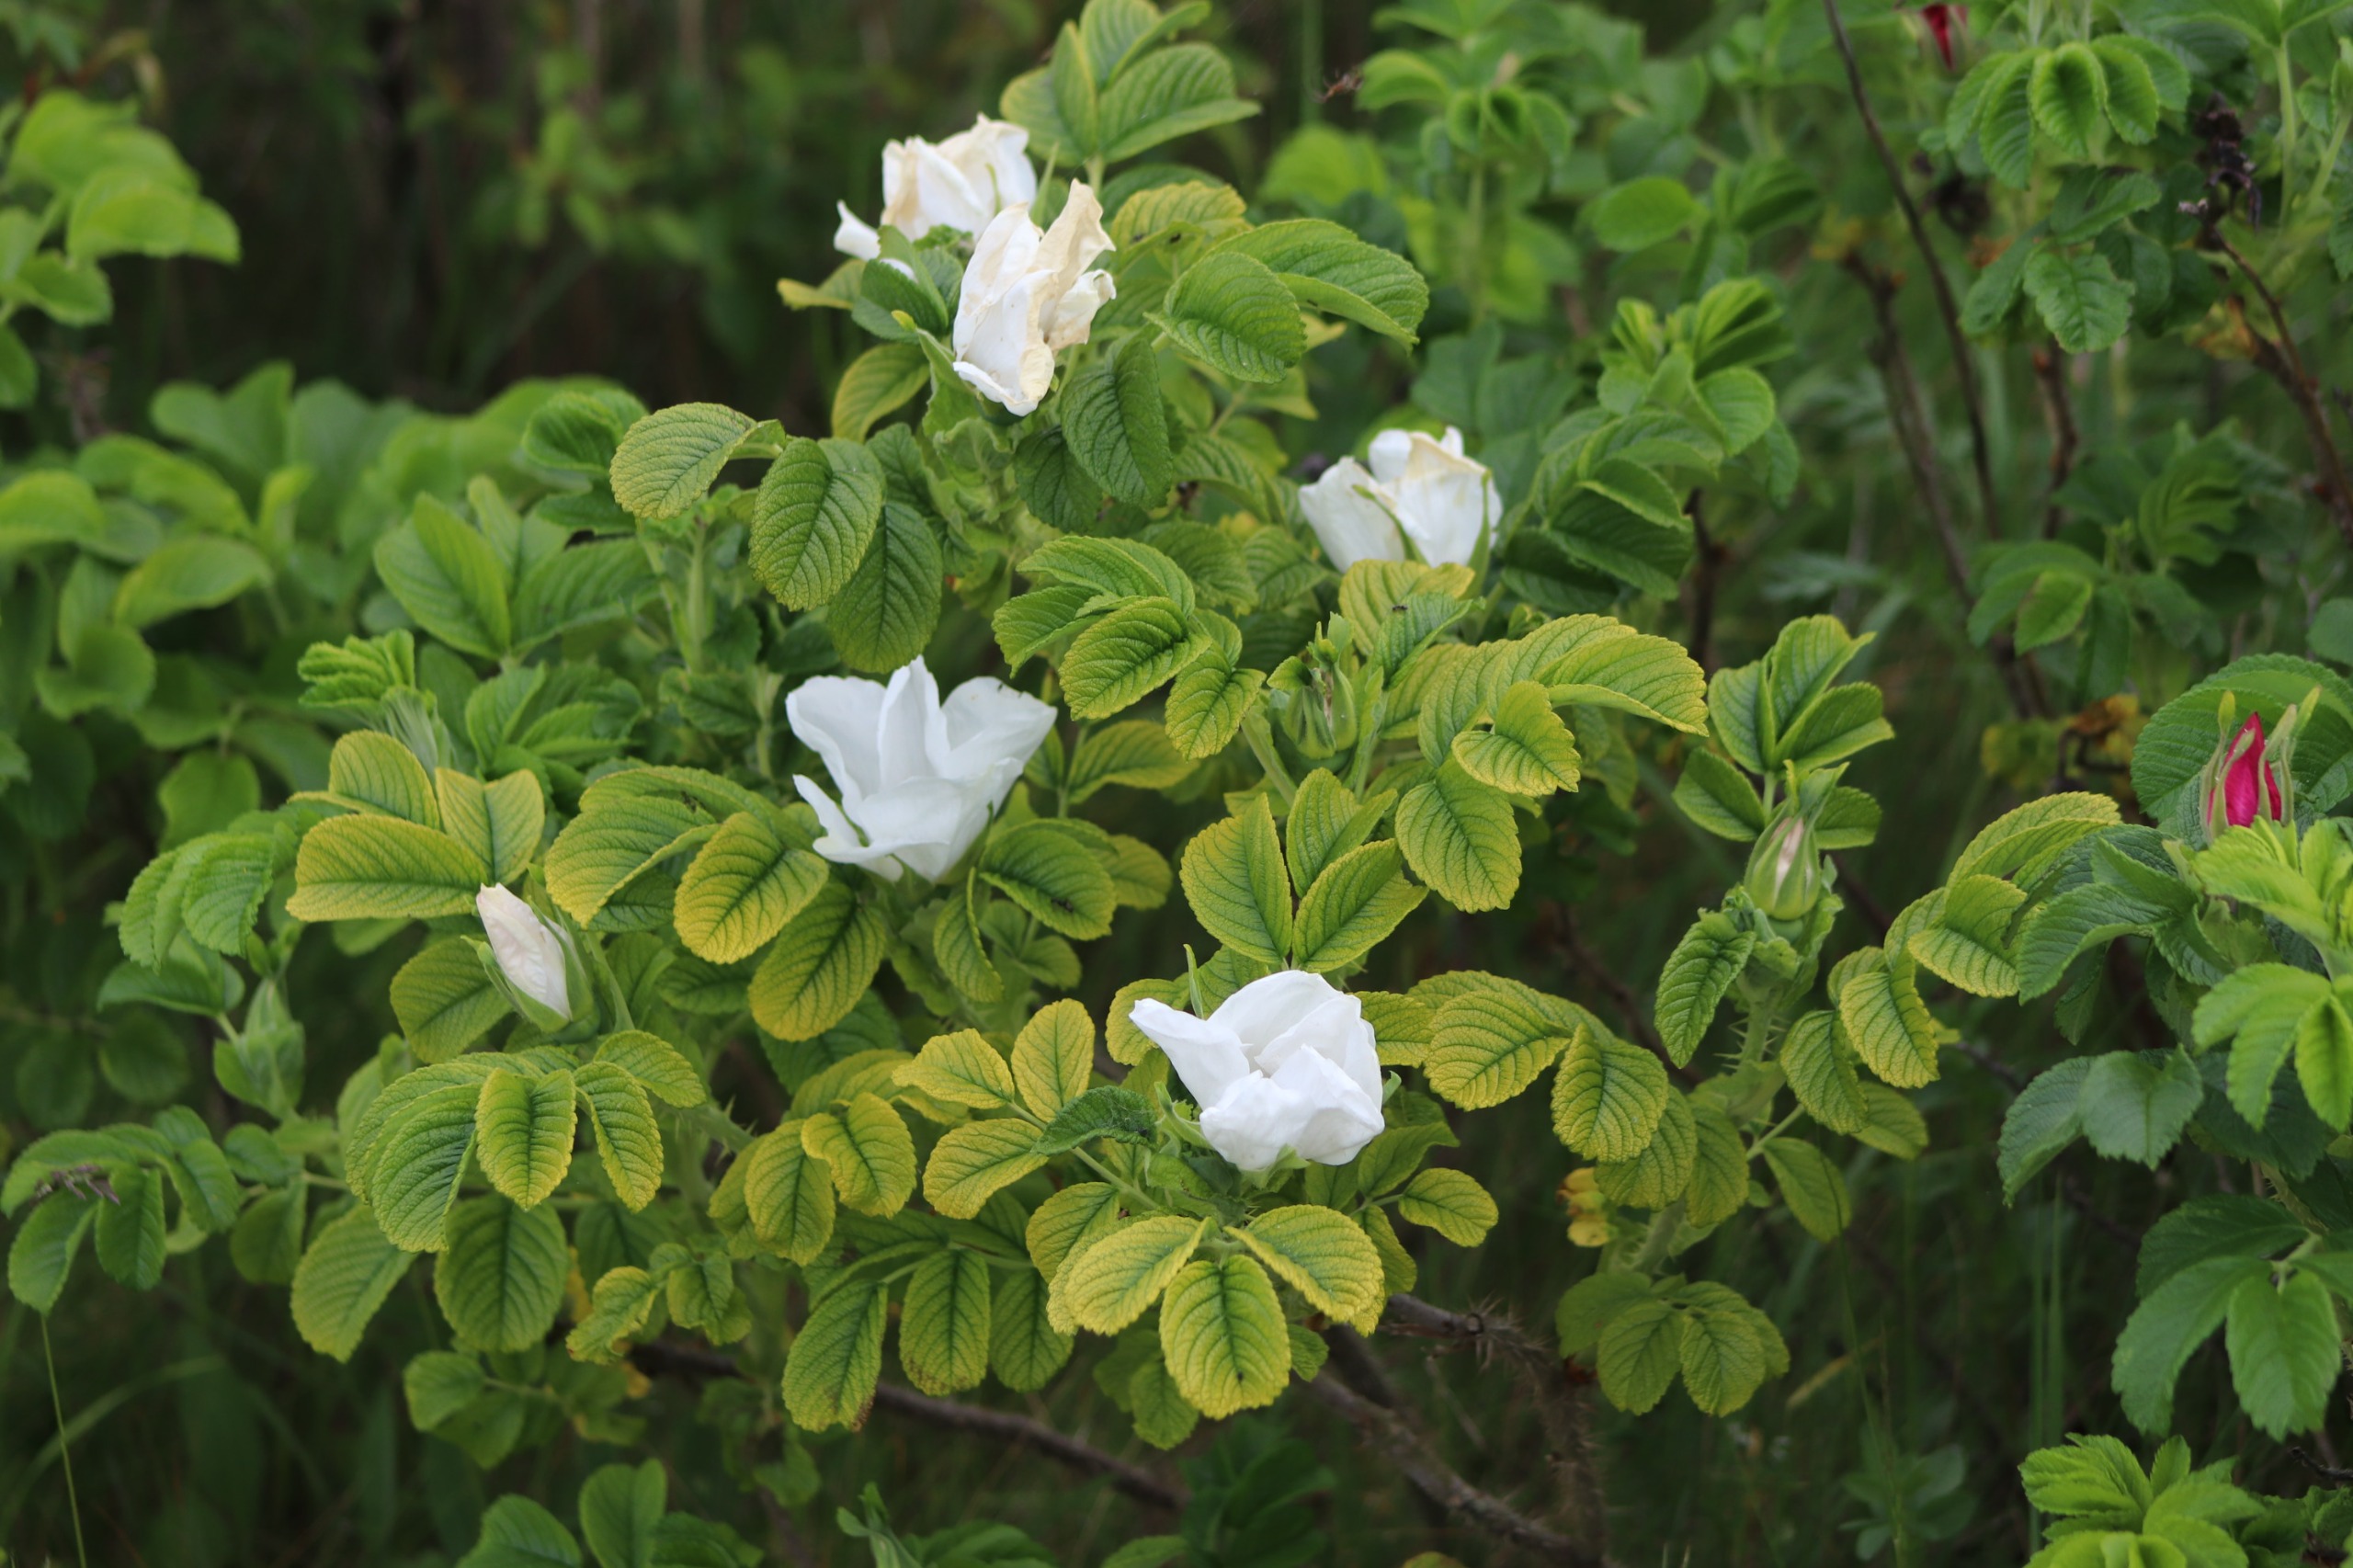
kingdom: Plantae
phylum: Tracheophyta
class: Magnoliopsida
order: Rosales
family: Rosaceae
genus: Rosa
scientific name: Rosa rugosa
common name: Rynket rose
